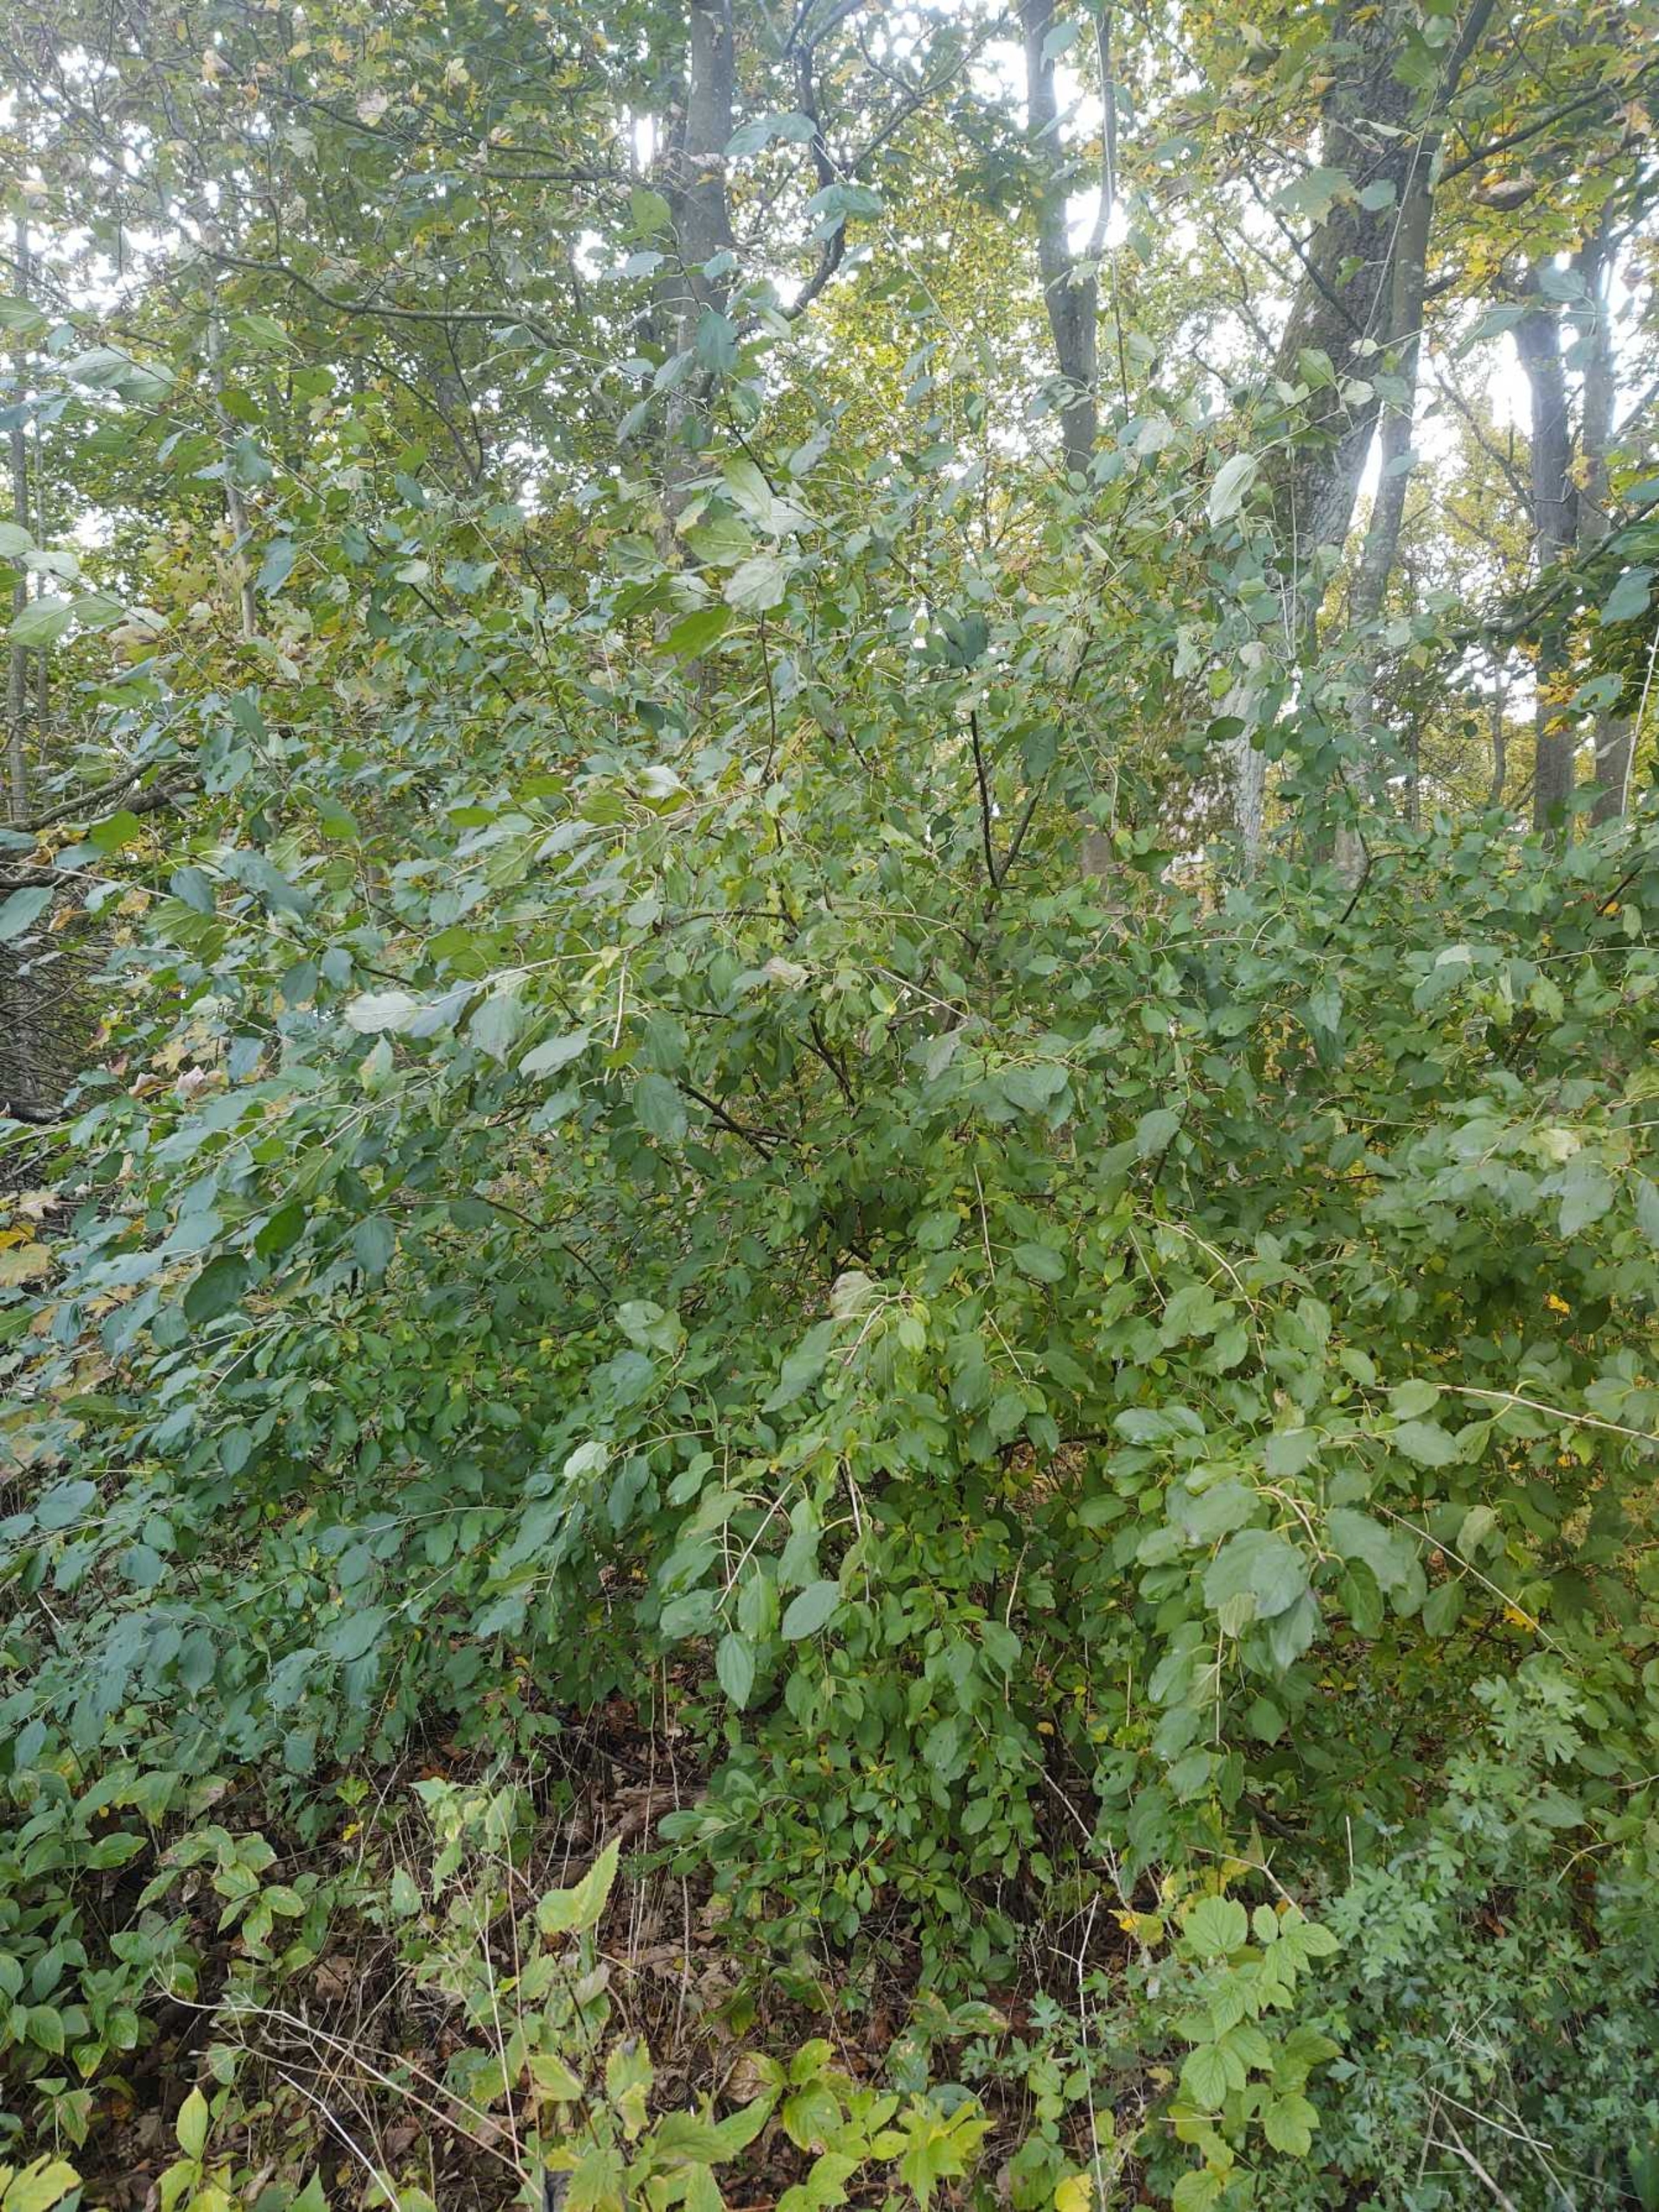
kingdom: Plantae
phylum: Tracheophyta
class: Magnoliopsida
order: Rosales
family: Rhamnaceae
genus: Rhamnus
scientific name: Rhamnus cathartica
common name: Vrietorn
